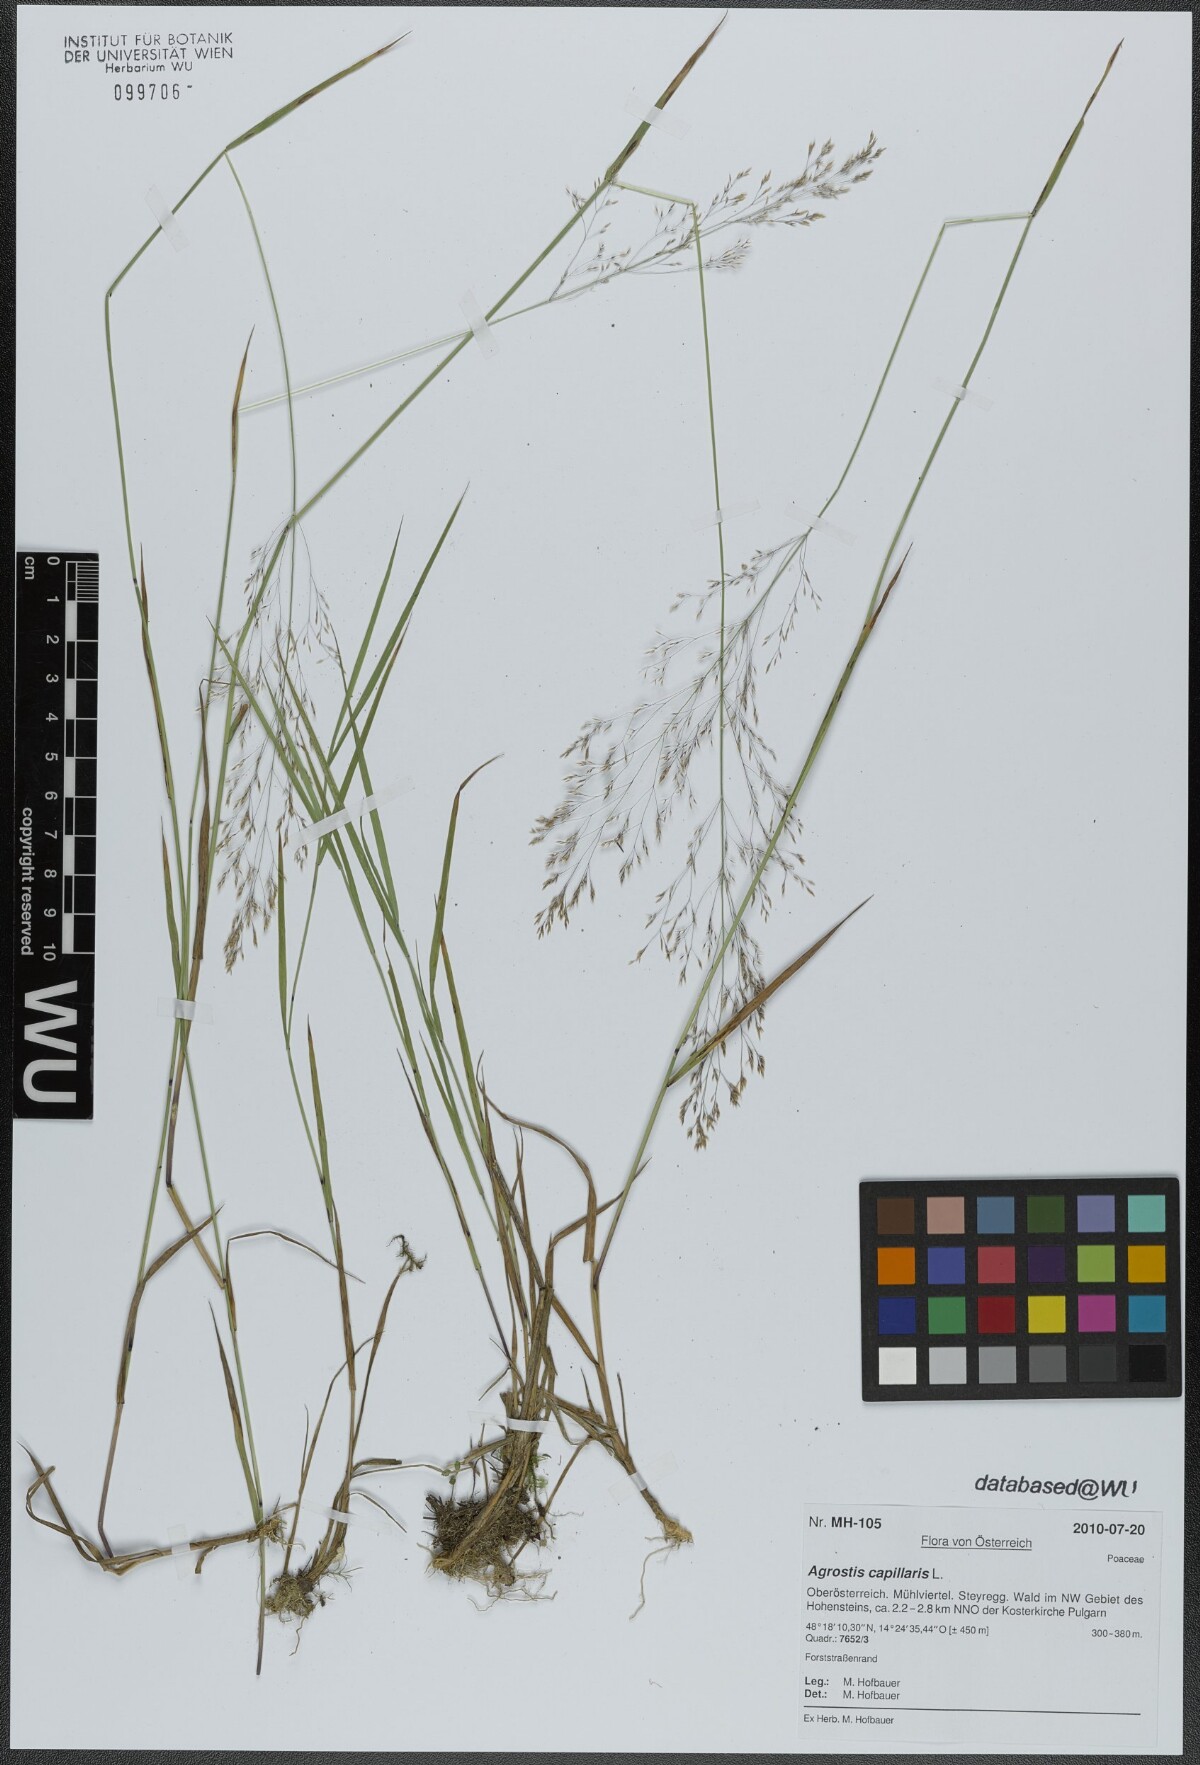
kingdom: Plantae
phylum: Tracheophyta
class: Liliopsida
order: Poales
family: Poaceae
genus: Agrostis
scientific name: Agrostis capillaris
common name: Colonial bentgrass
